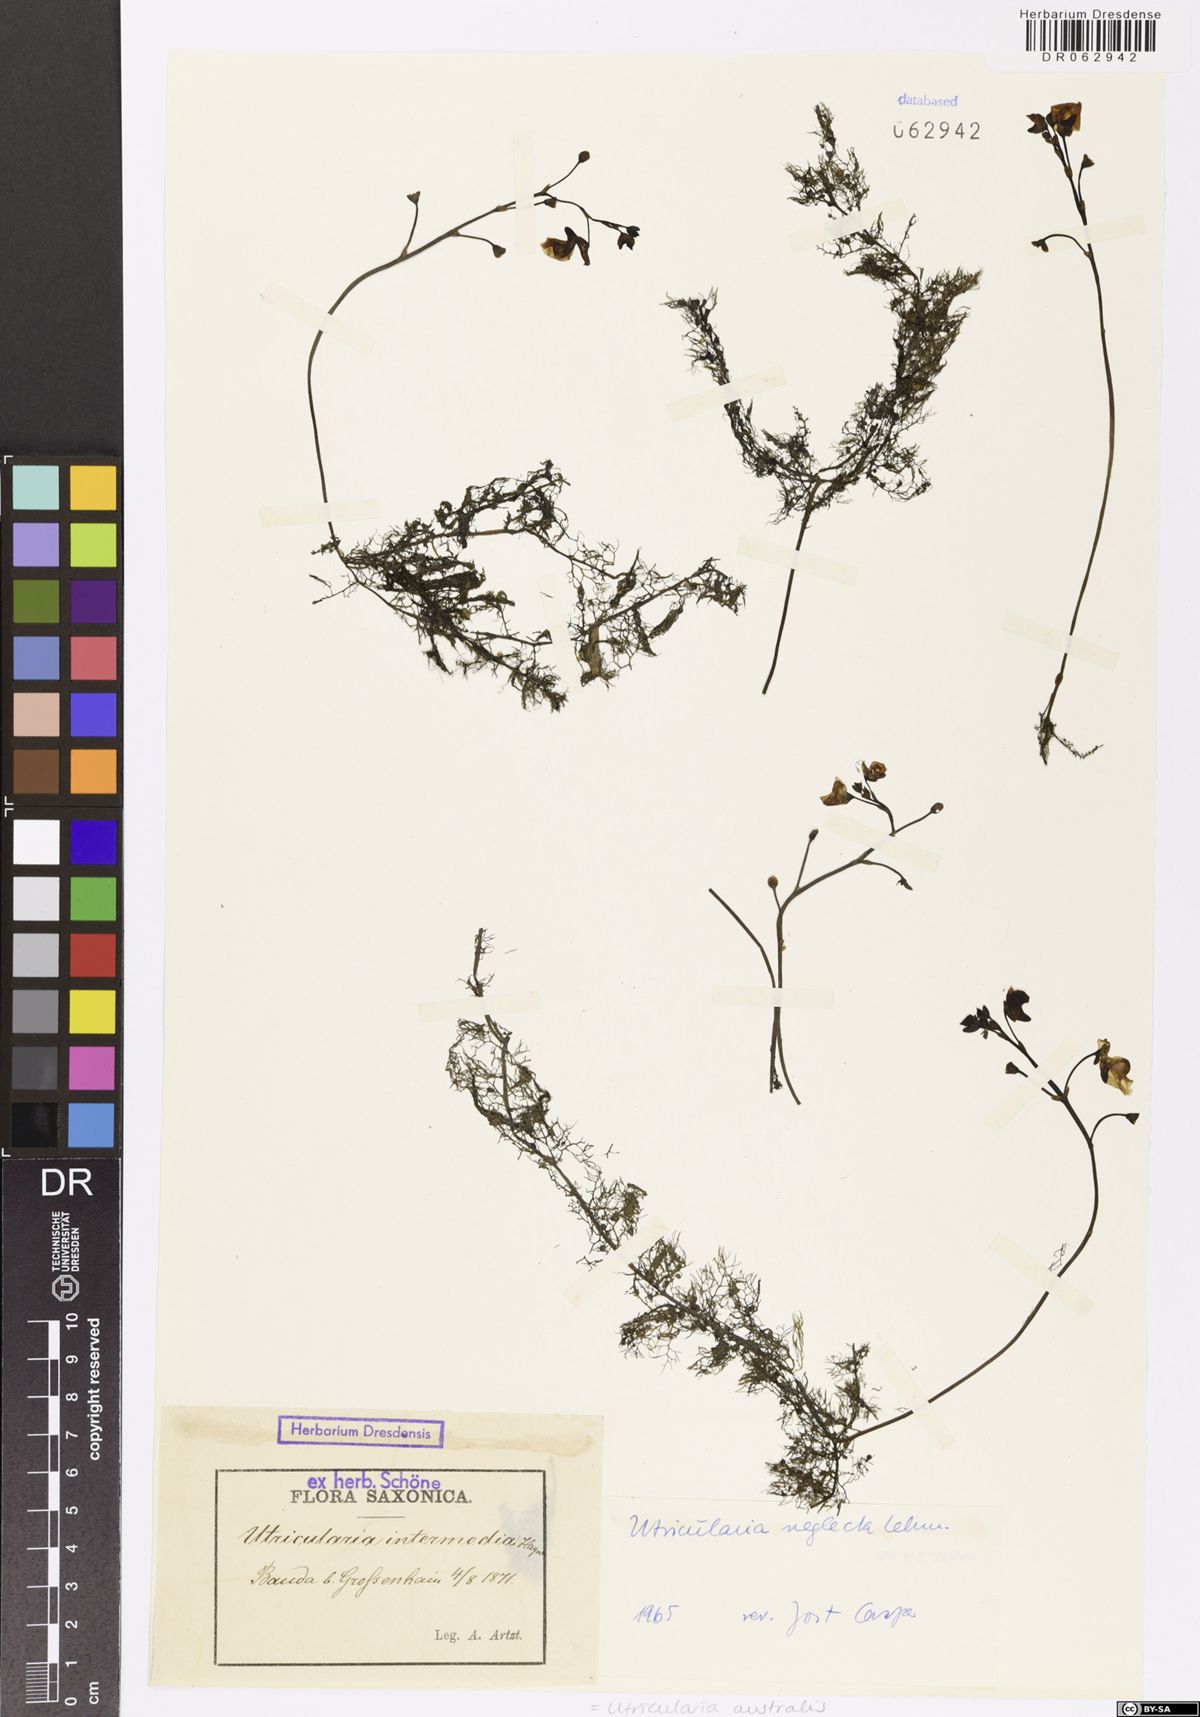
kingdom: Plantae
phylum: Tracheophyta
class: Magnoliopsida
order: Lamiales
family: Lentibulariaceae
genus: Utricularia
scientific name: Utricularia australis
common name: Bladderwort
